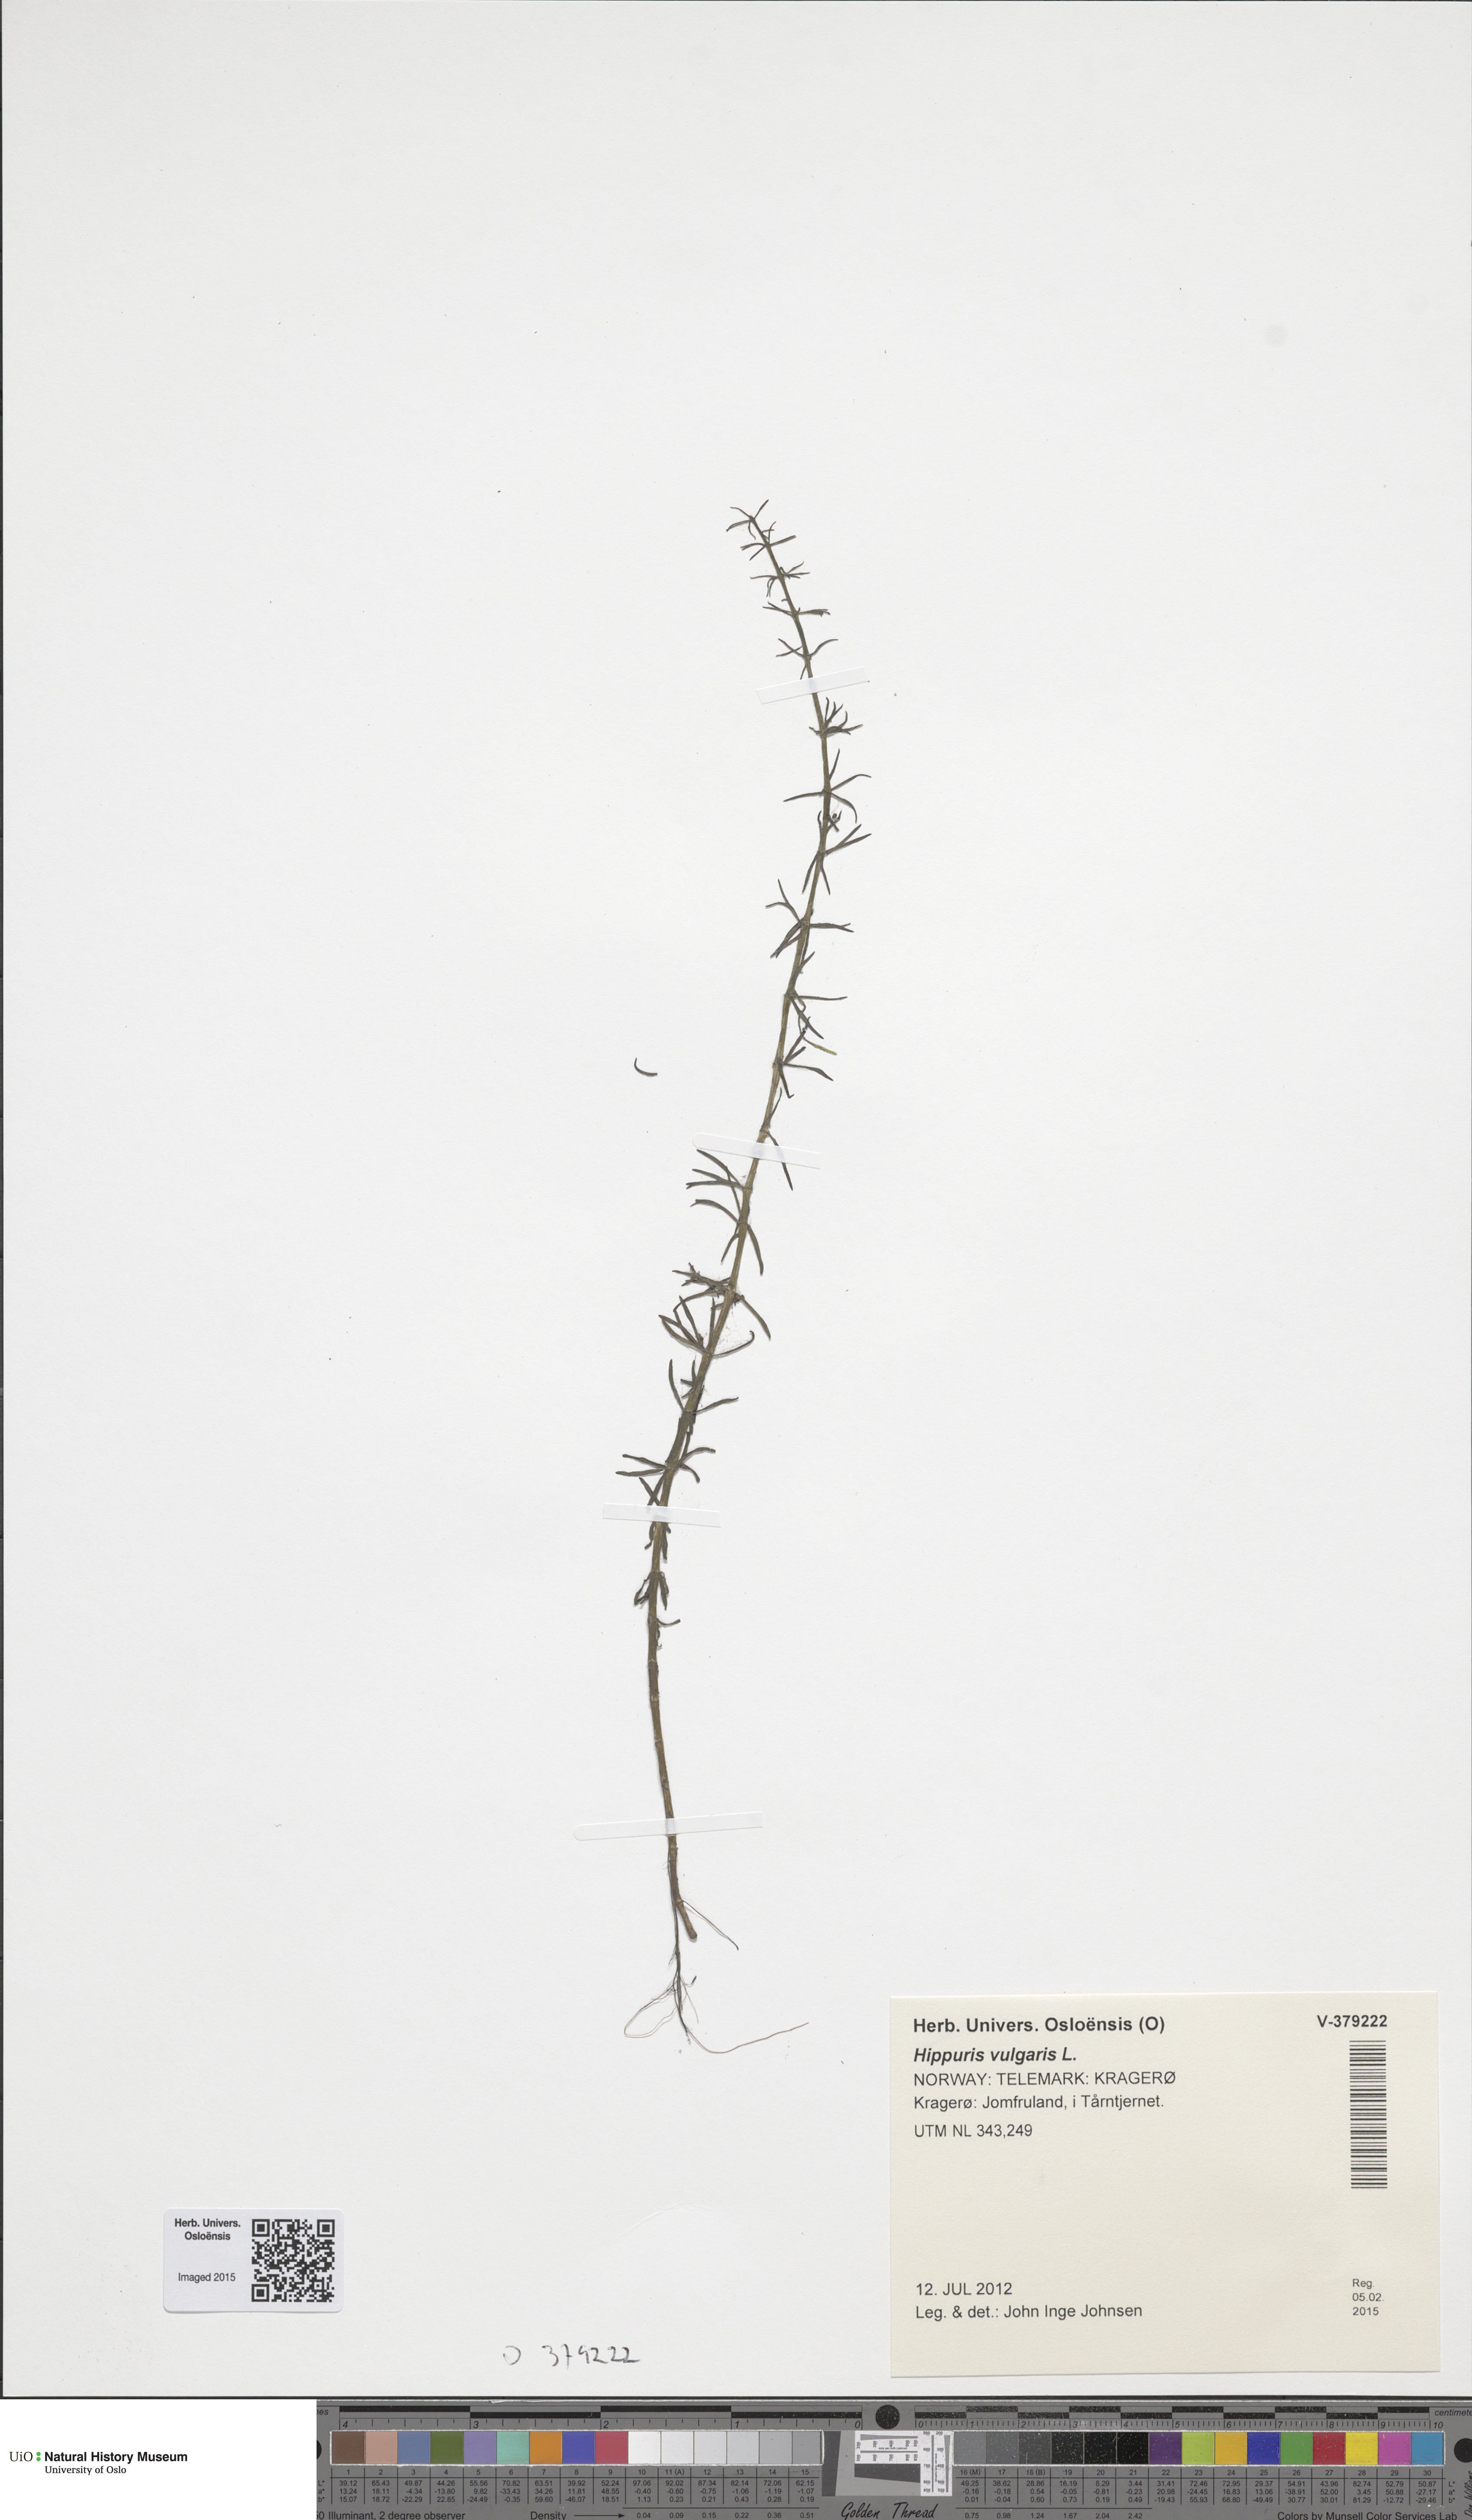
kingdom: Plantae
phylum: Tracheophyta
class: Magnoliopsida
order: Lamiales
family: Plantaginaceae
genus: Hippuris
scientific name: Hippuris vulgaris
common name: Mare's-tail
